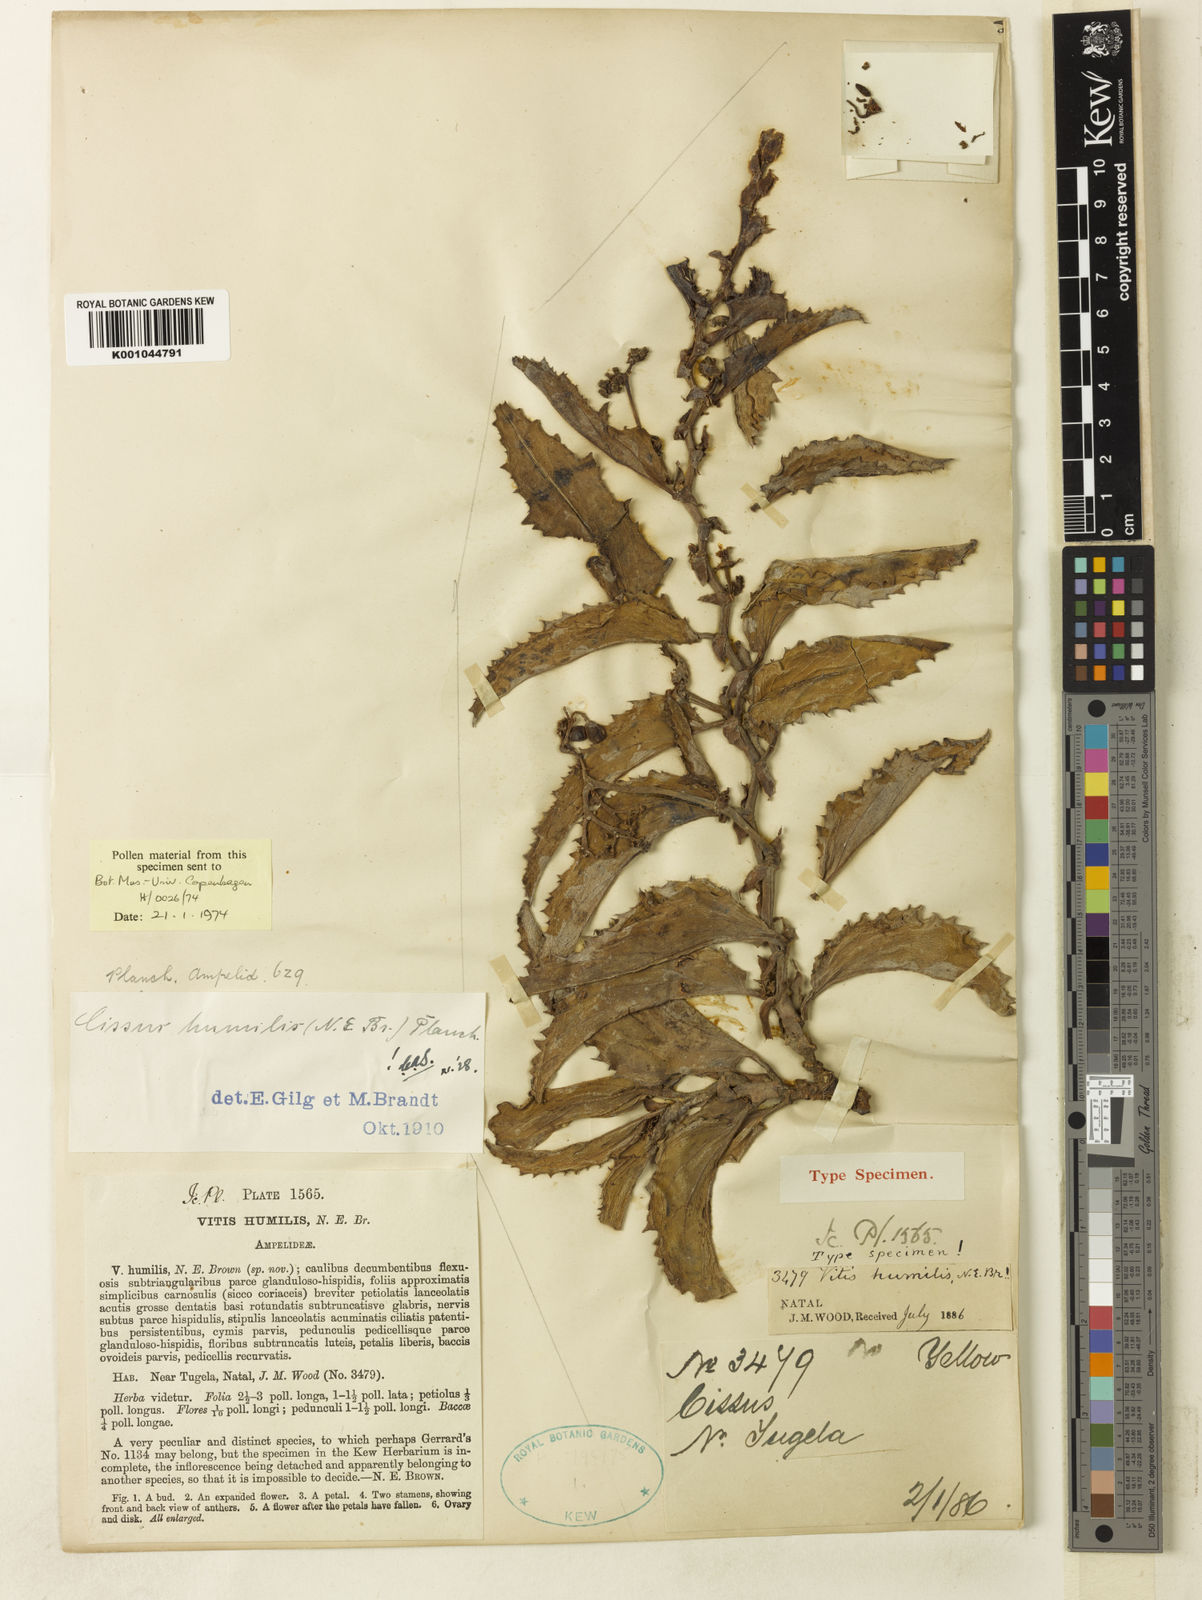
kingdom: Plantae
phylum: Tracheophyta
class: Magnoliopsida
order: Vitales
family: Vitaceae
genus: Cyphostemma
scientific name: Cyphostemma humile
